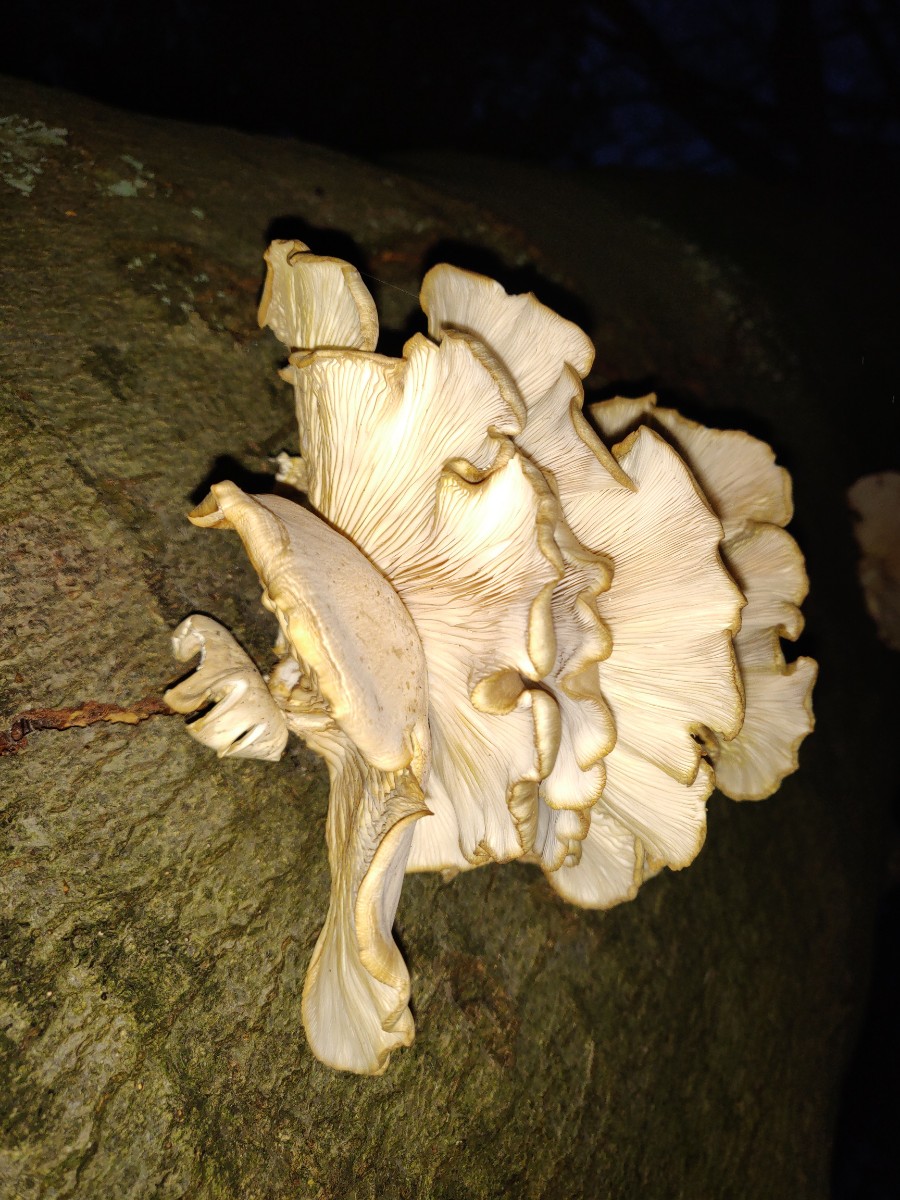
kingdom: Fungi
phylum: Basidiomycota
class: Agaricomycetes
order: Agaricales
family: Pleurotaceae
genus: Pleurotus
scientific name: Pleurotus pulmonarius
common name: sommer-østershat
